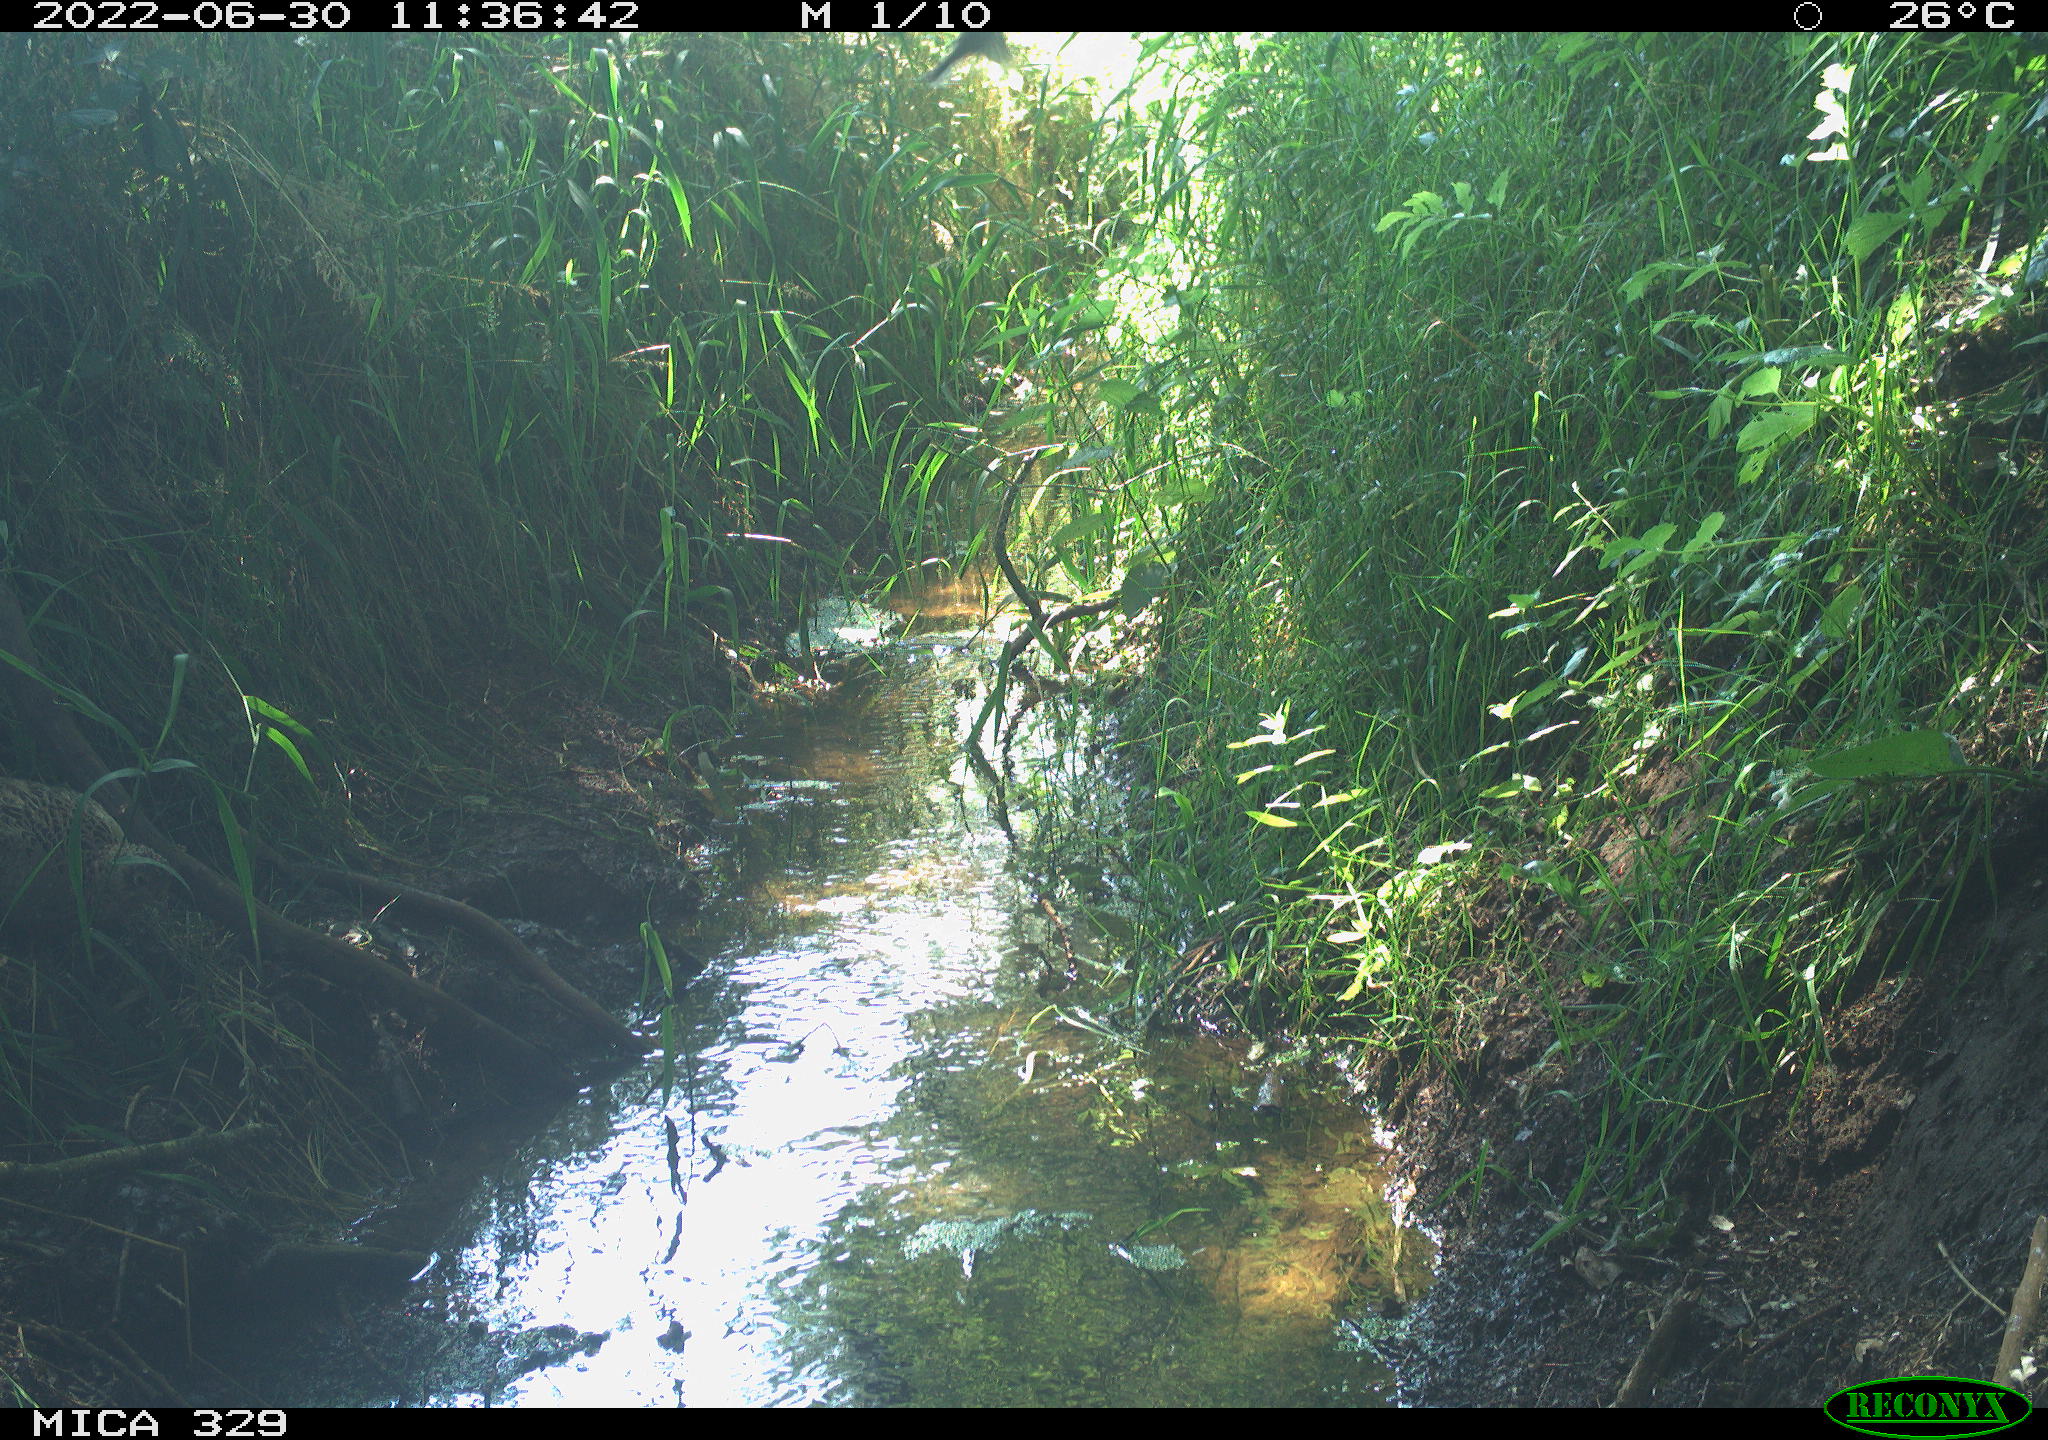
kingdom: Animalia
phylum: Chordata
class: Aves
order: Galliformes
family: Phasianidae
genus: Phasianus
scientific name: Phasianus colchicus
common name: Common pheasant
